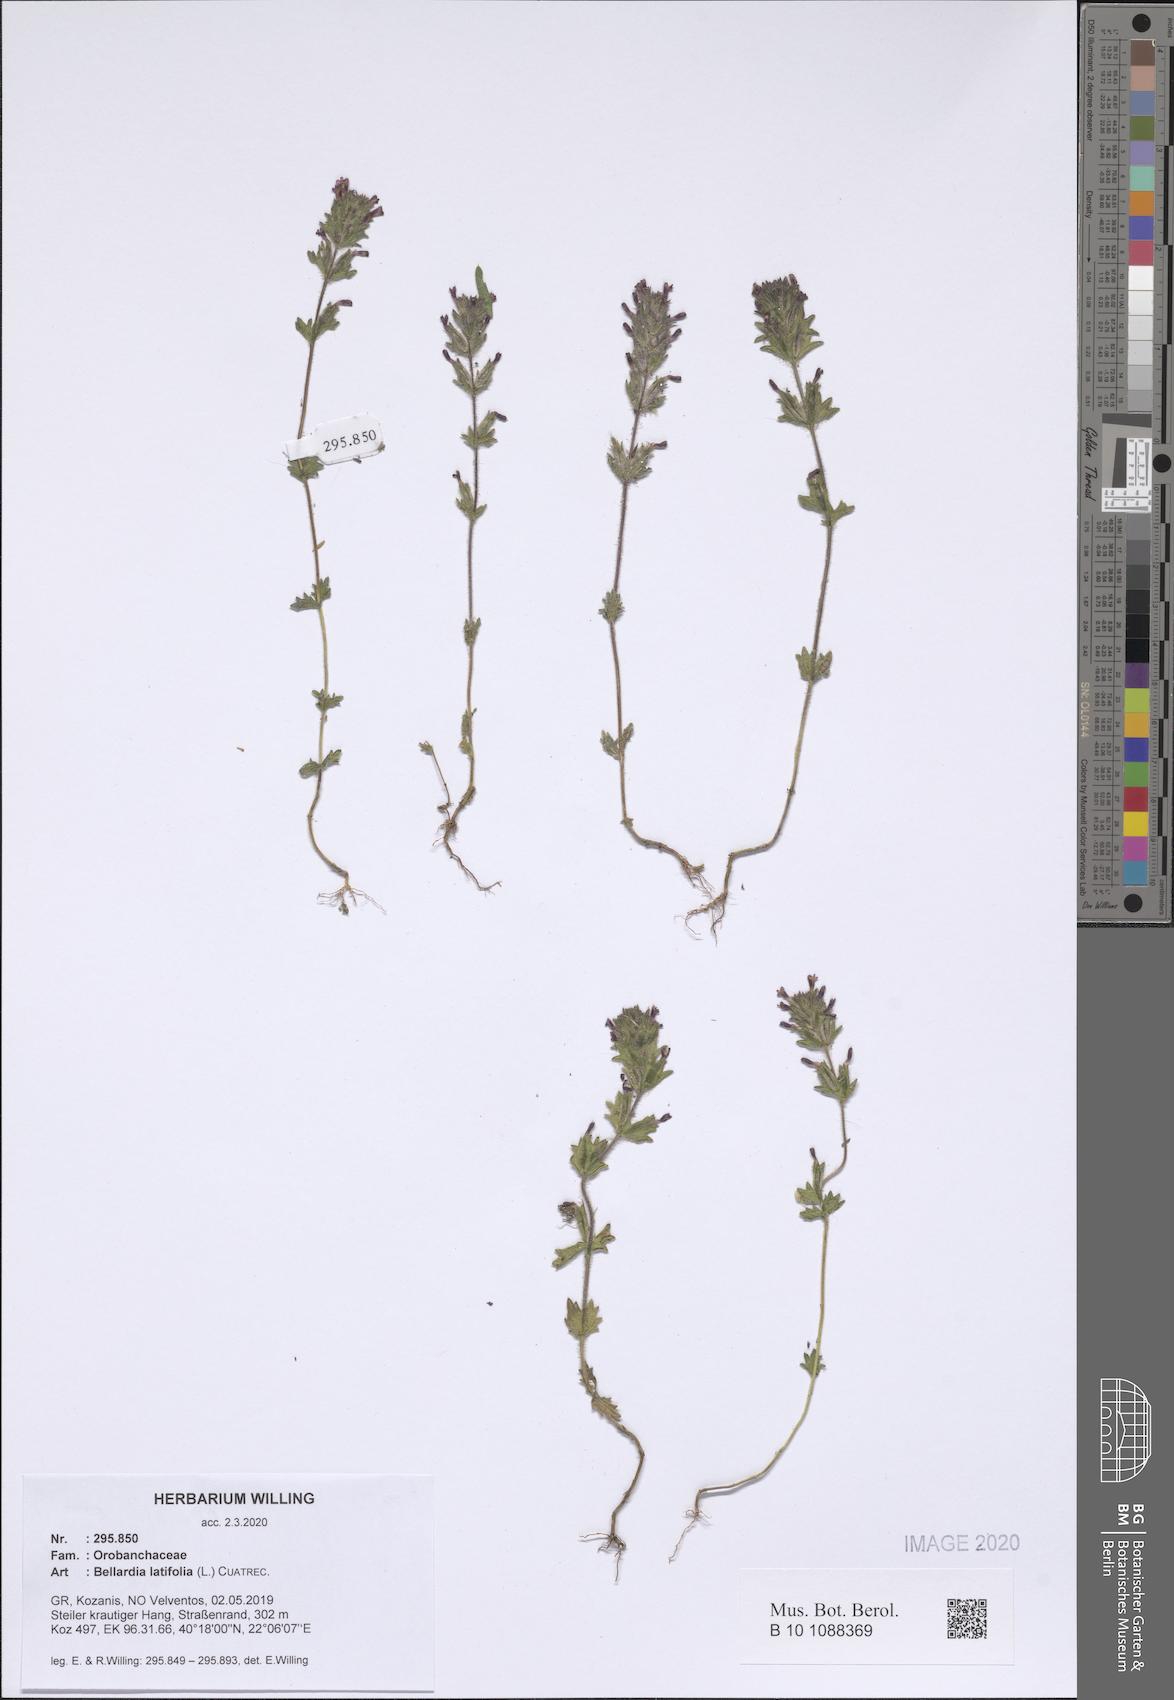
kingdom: Plantae
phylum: Tracheophyta
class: Magnoliopsida
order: Lamiales
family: Orobanchaceae
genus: Parentucellia
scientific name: Parentucellia latifolia
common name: Broadleaf glandweed
